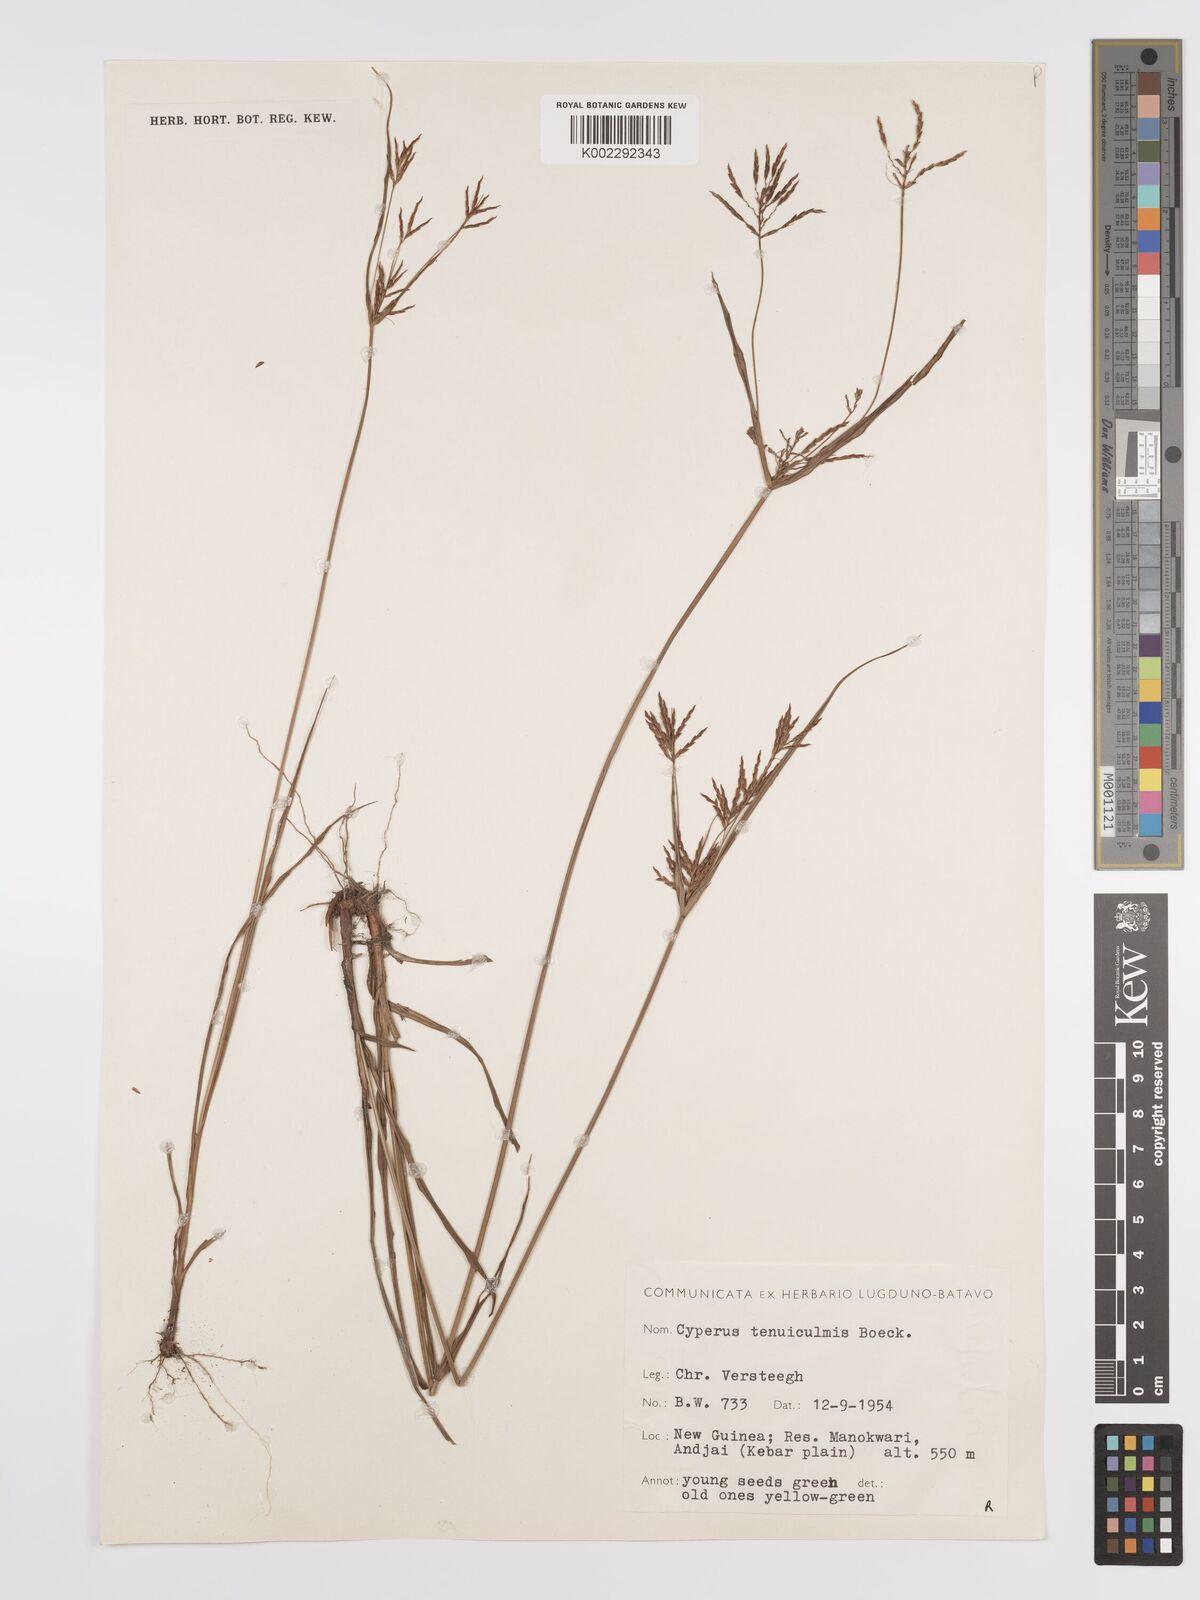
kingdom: Plantae
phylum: Tracheophyta
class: Liliopsida
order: Poales
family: Cyperaceae
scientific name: Cyperaceae
